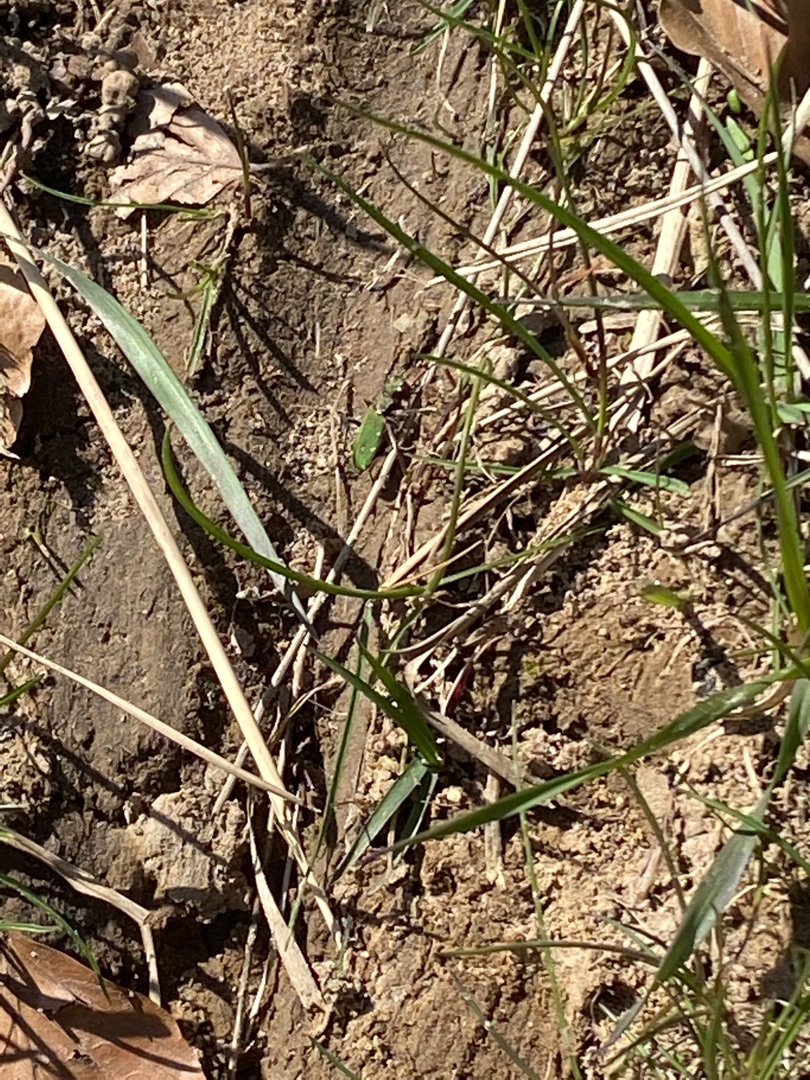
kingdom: Animalia
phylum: Arthropoda
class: Insecta
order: Coleoptera
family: Carabidae
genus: Cicindela
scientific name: Cicindela campestris
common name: Grøn sandspringer
